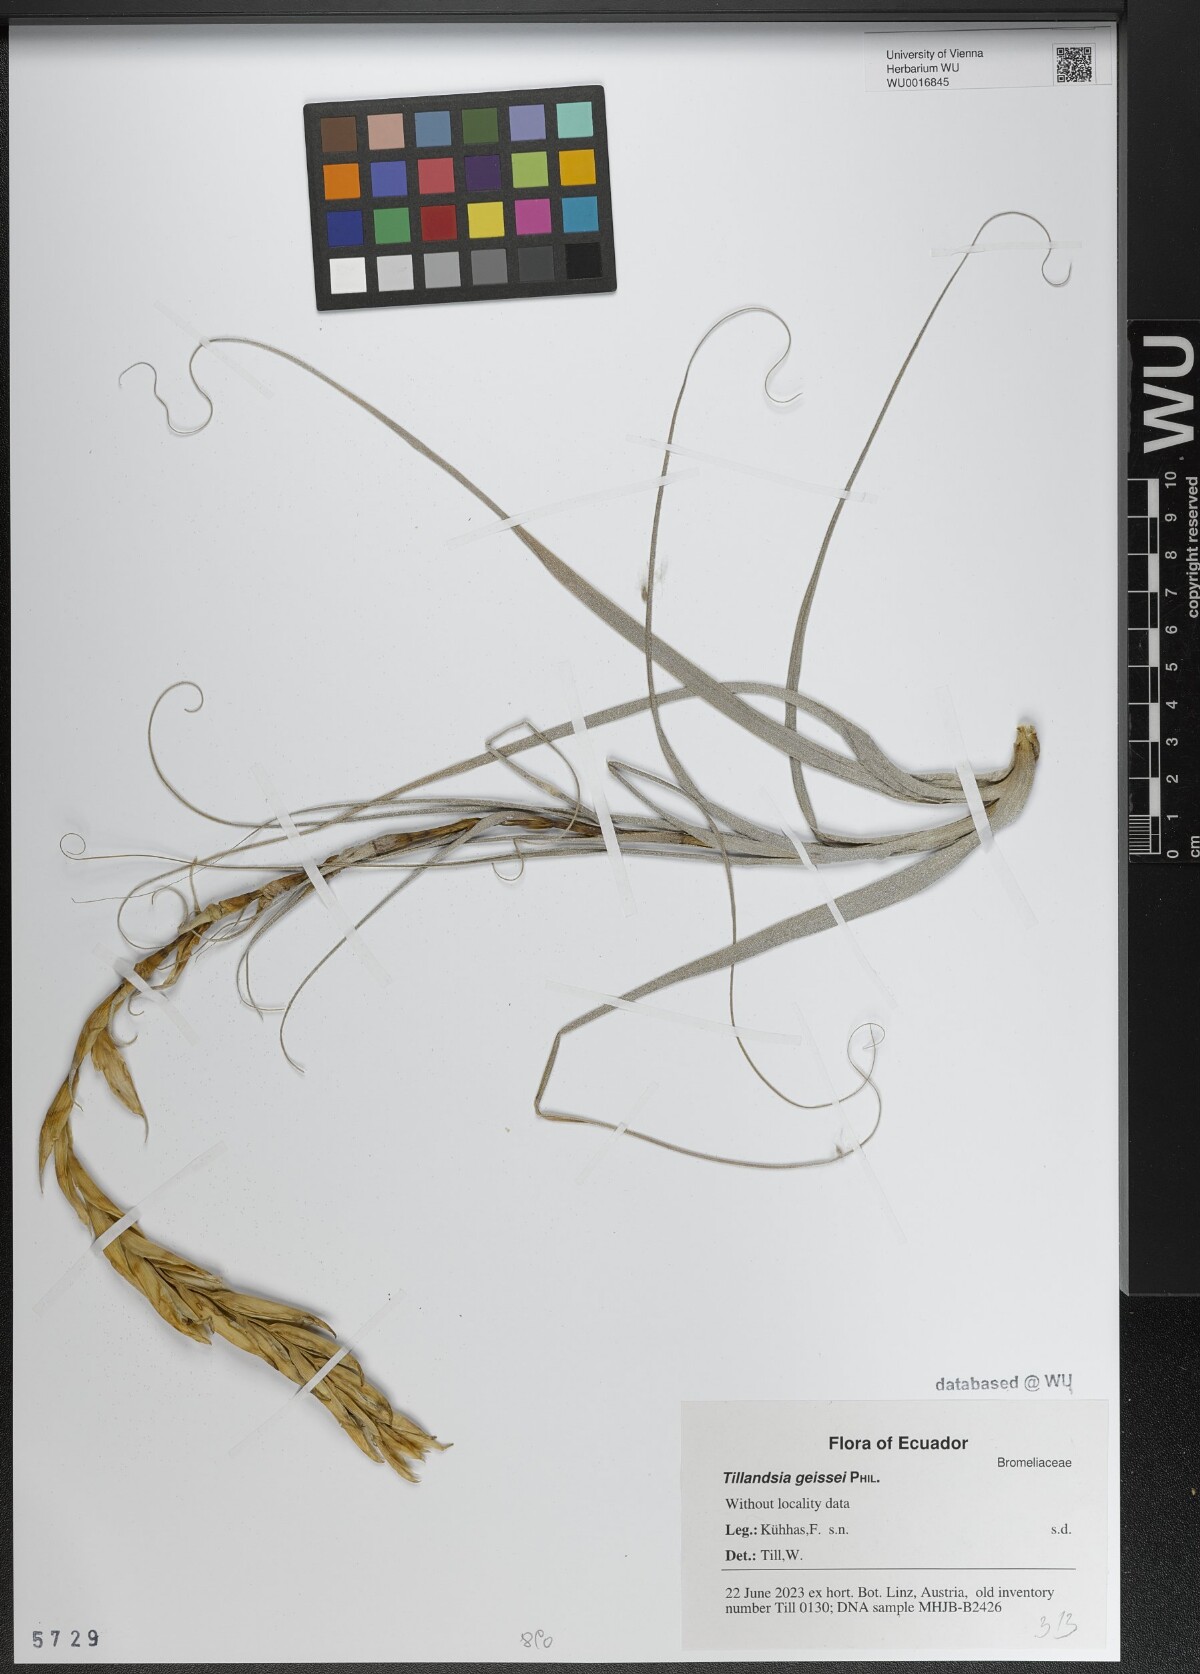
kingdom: Plantae
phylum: Tracheophyta
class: Liliopsida
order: Poales
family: Bromeliaceae
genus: Tillandsia
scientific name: Tillandsia geissei
